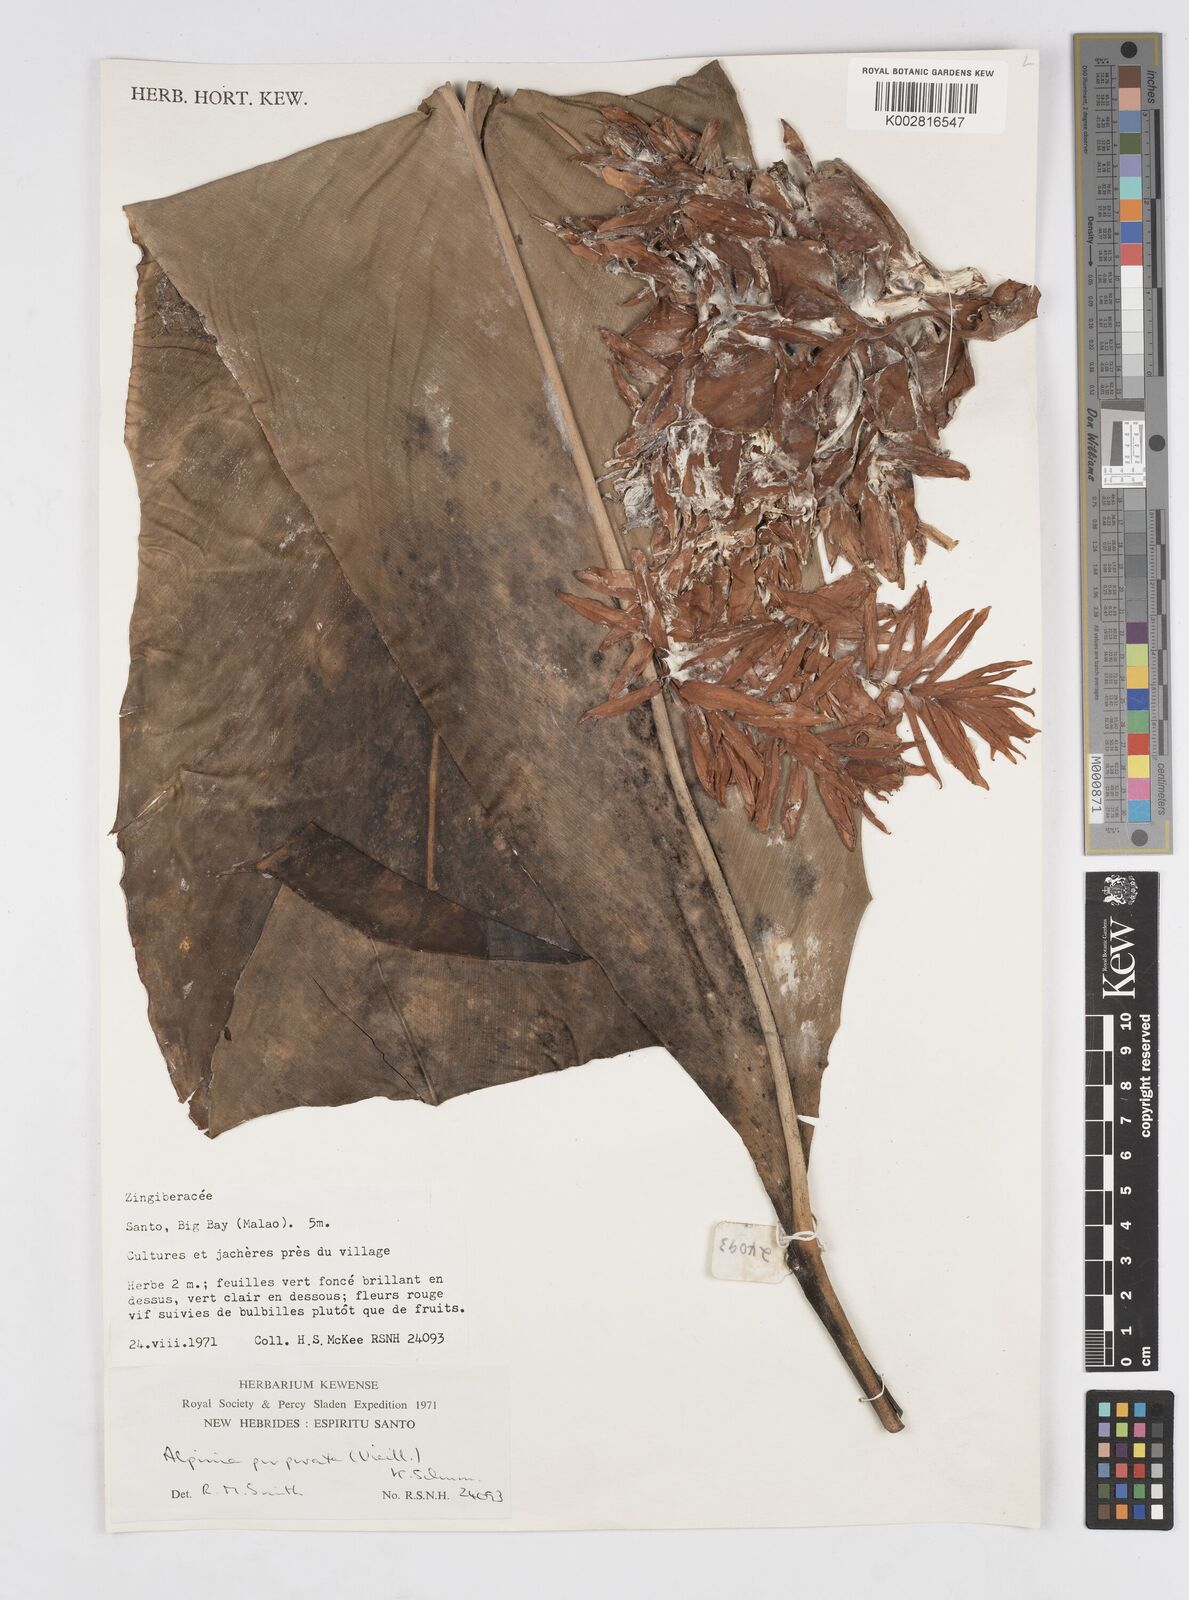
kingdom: Plantae
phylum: Tracheophyta
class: Liliopsida
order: Zingiberales
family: Zingiberaceae
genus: Alpinia
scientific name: Alpinia purpurata
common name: Red ginger
